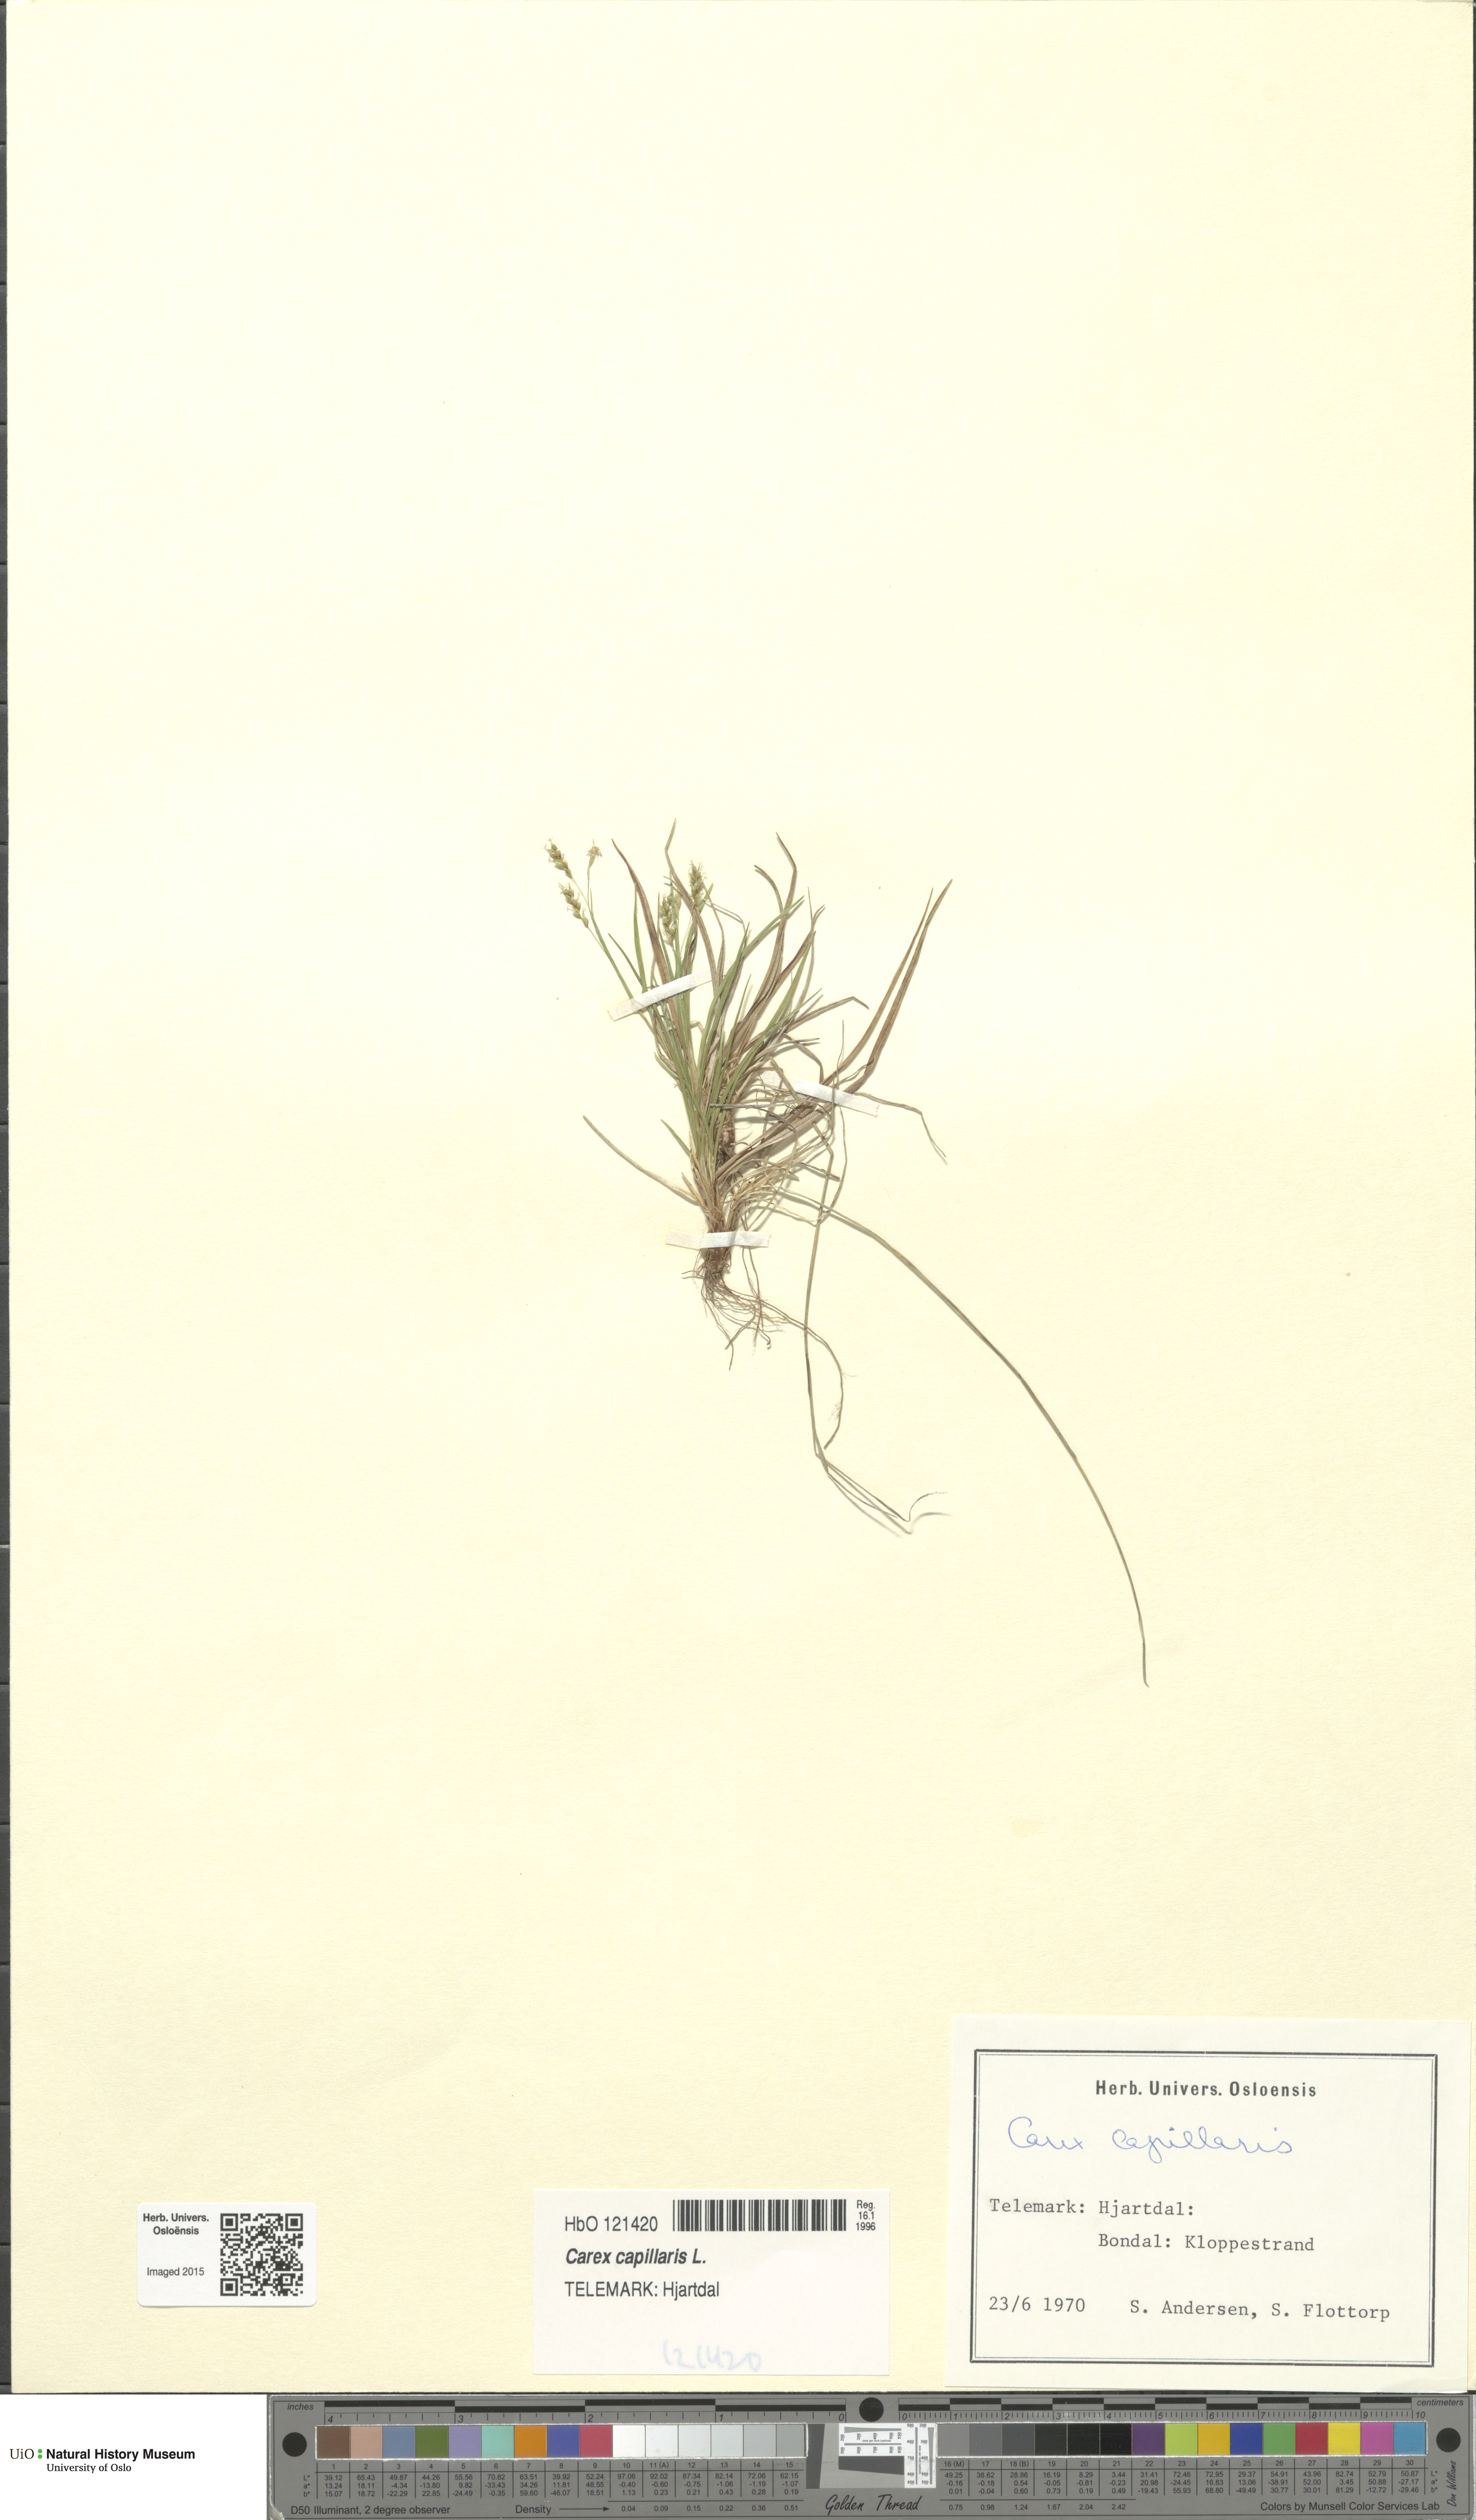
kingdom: Plantae
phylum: Tracheophyta
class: Liliopsida
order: Poales
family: Cyperaceae
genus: Carex
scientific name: Carex capillaris
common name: Hair sedge
